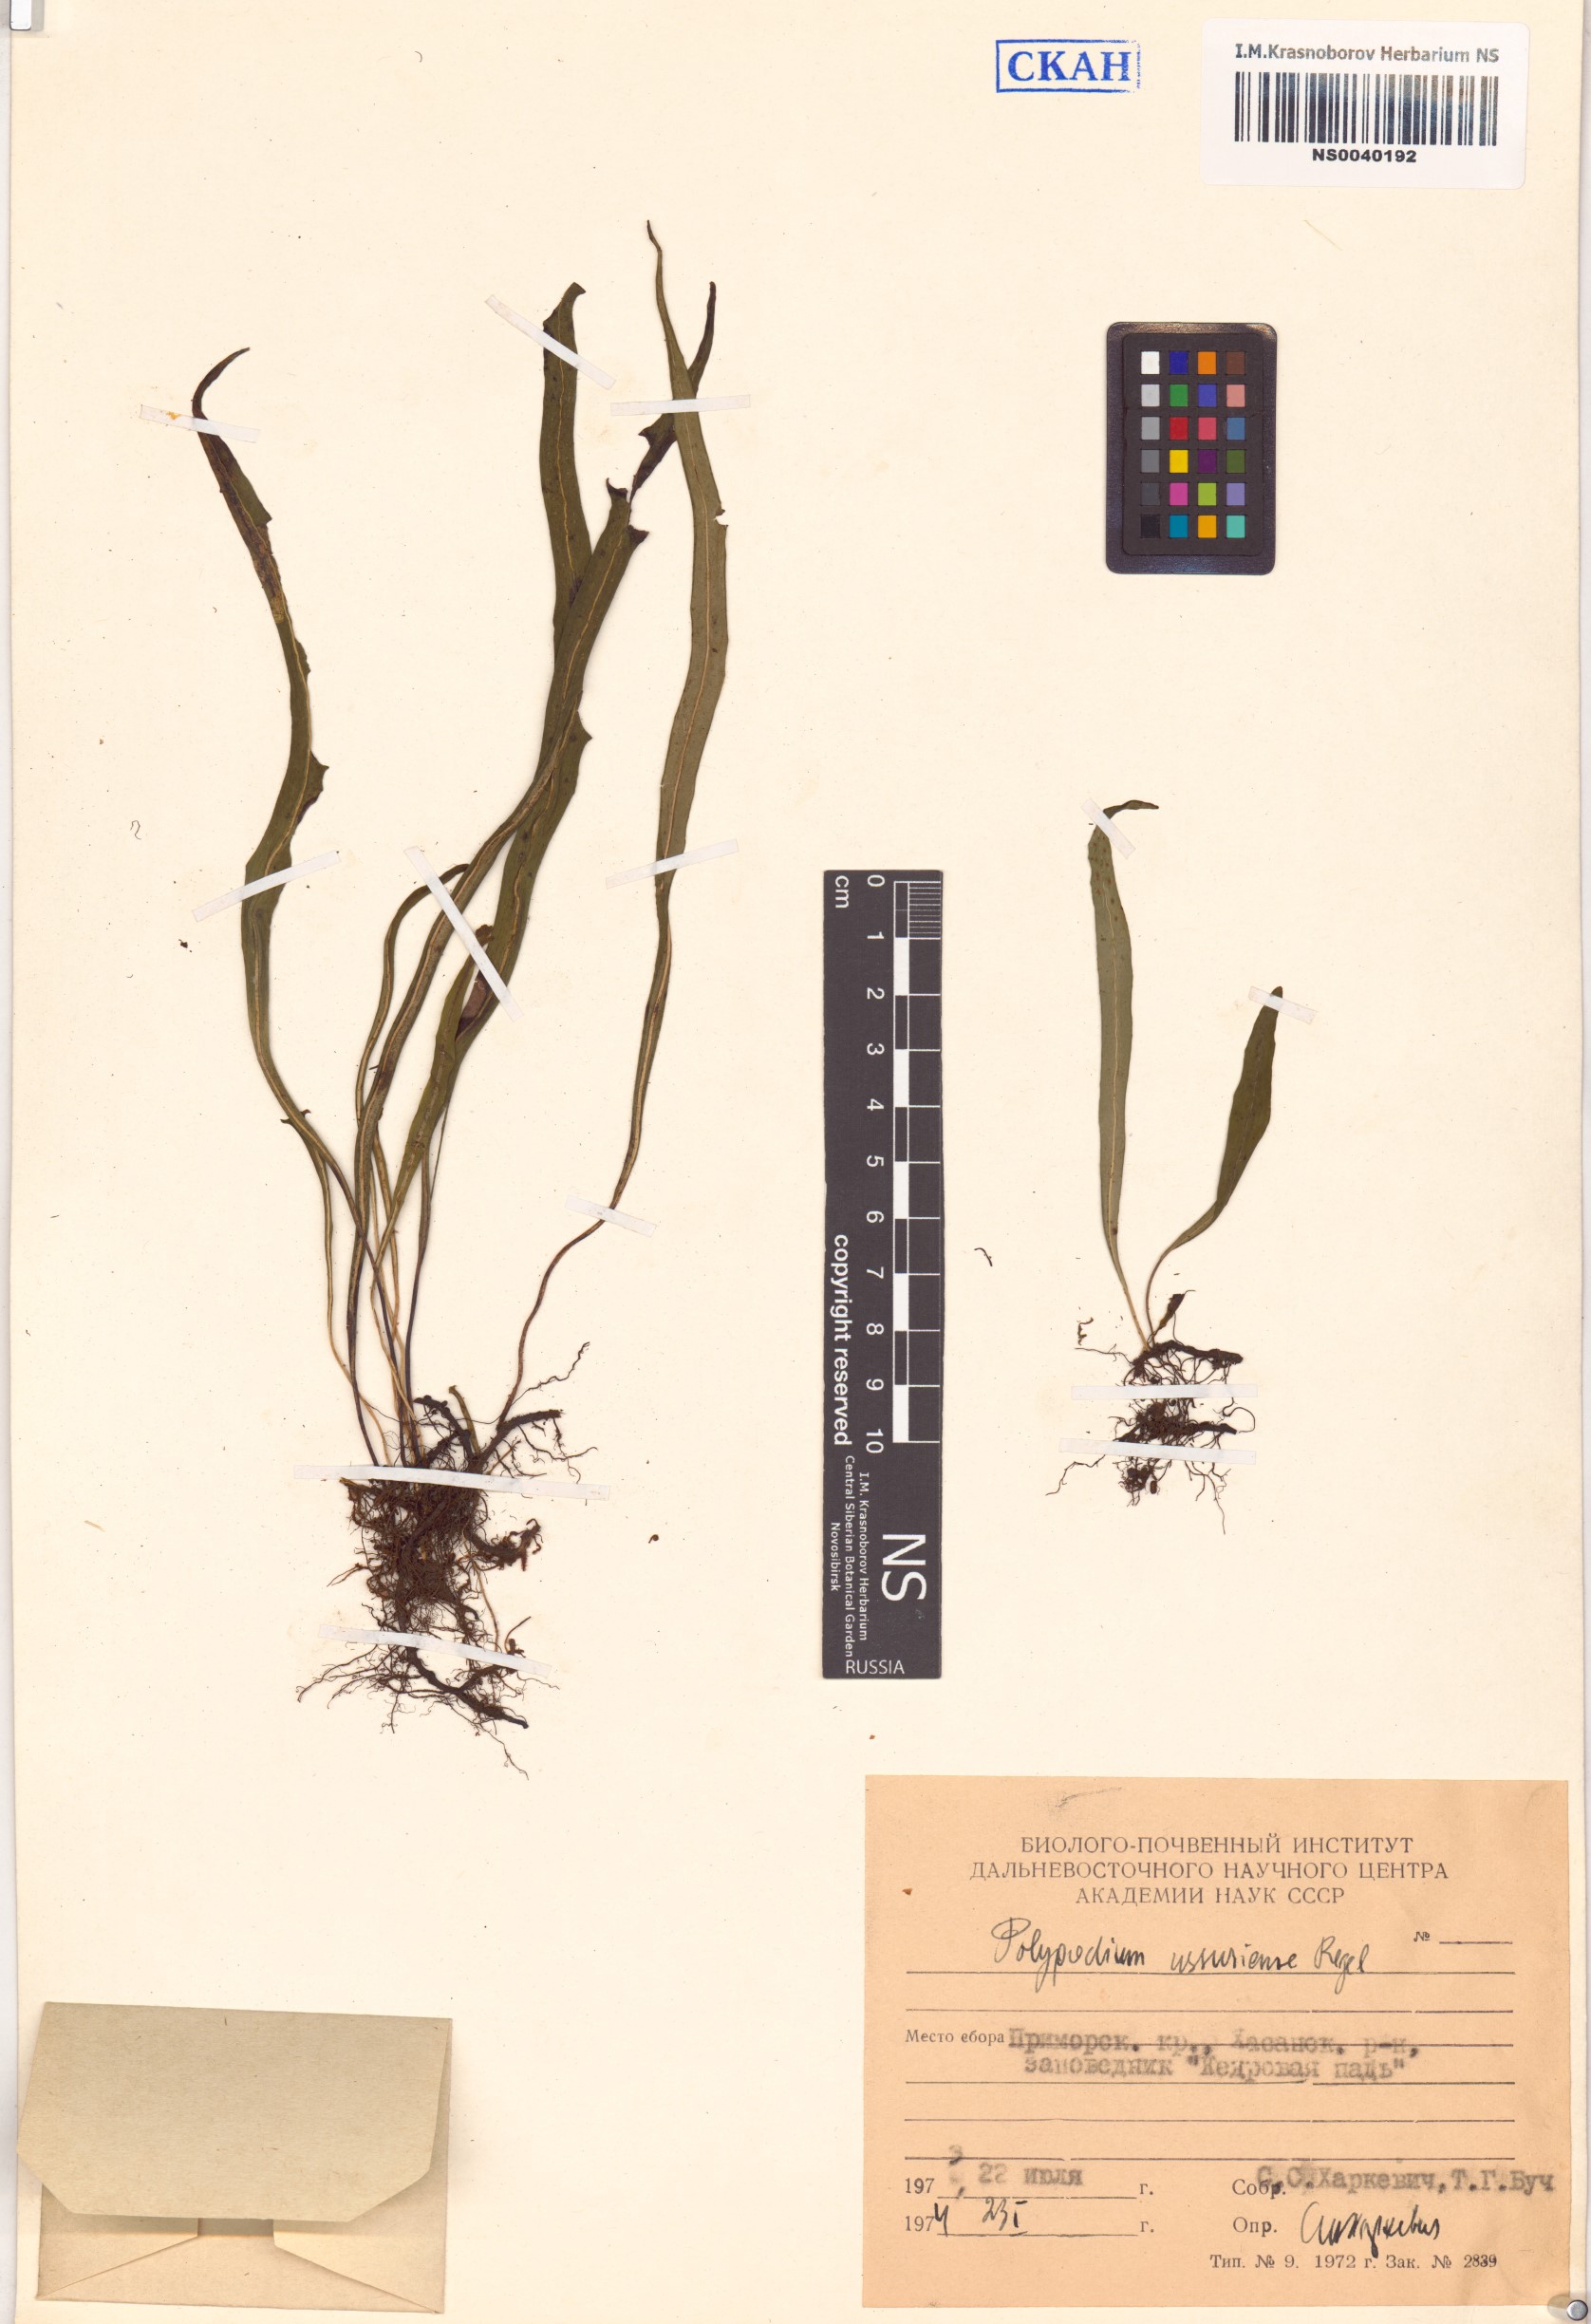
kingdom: Plantae
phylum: Tracheophyta
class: Polypodiopsida
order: Polypodiales
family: Polypodiaceae
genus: Lepisorus
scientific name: Lepisorus ussuriensis
